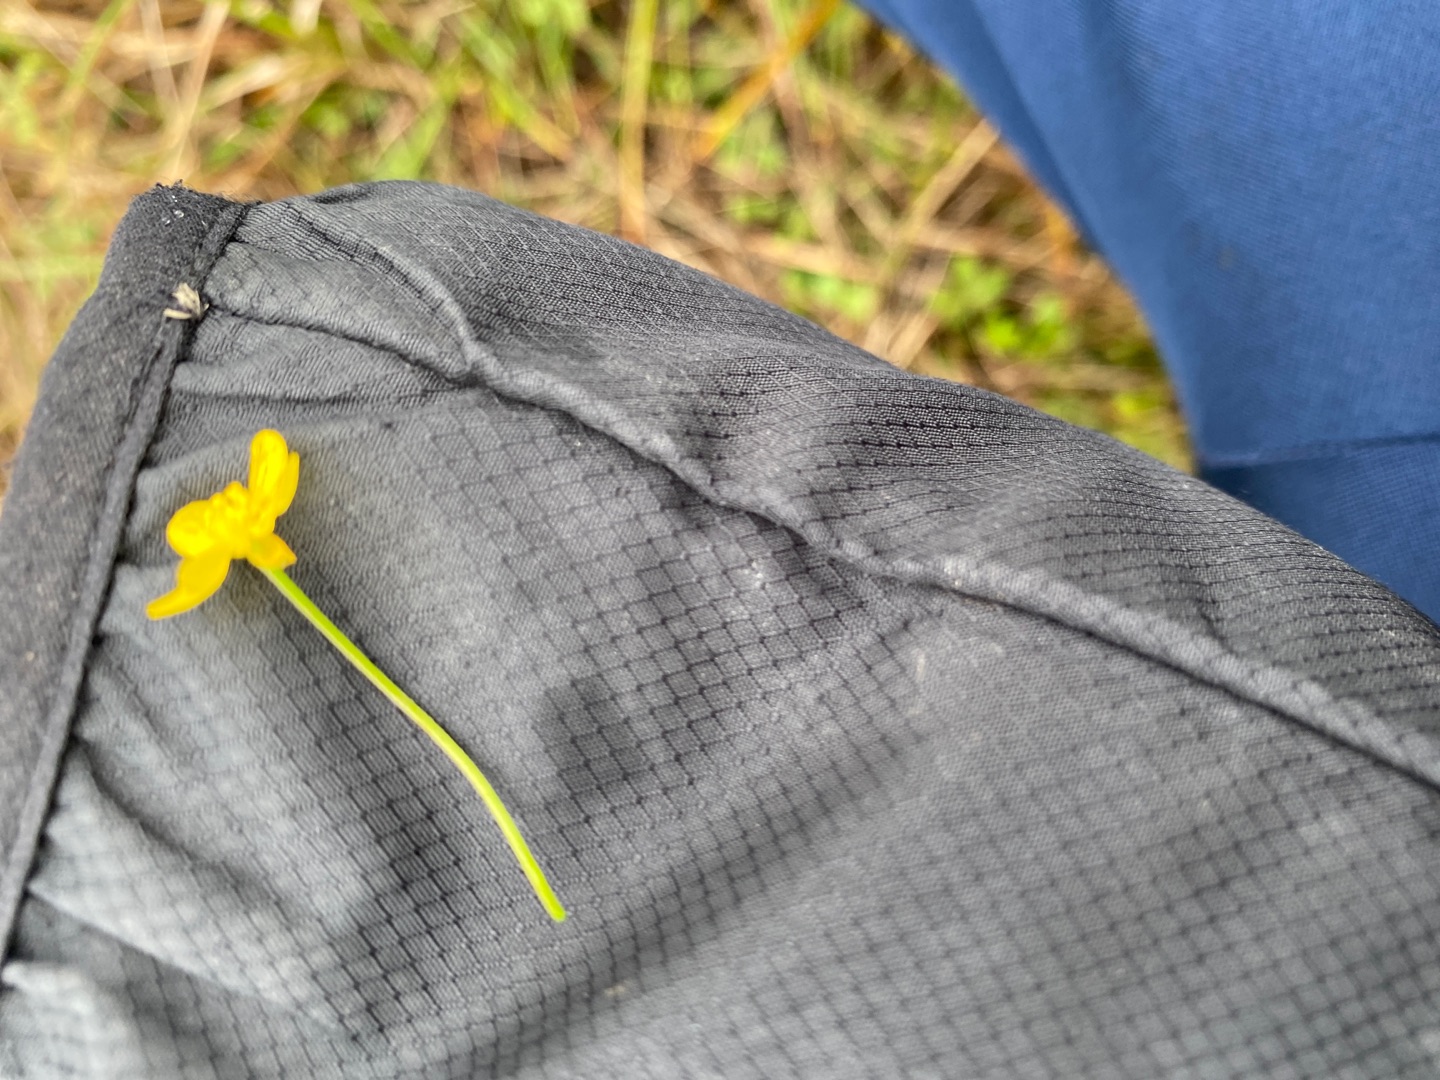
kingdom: Plantae
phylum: Tracheophyta
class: Magnoliopsida
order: Ranunculales
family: Ranunculaceae
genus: Ranunculus
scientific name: Ranunculus
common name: Ranunkelslægten
